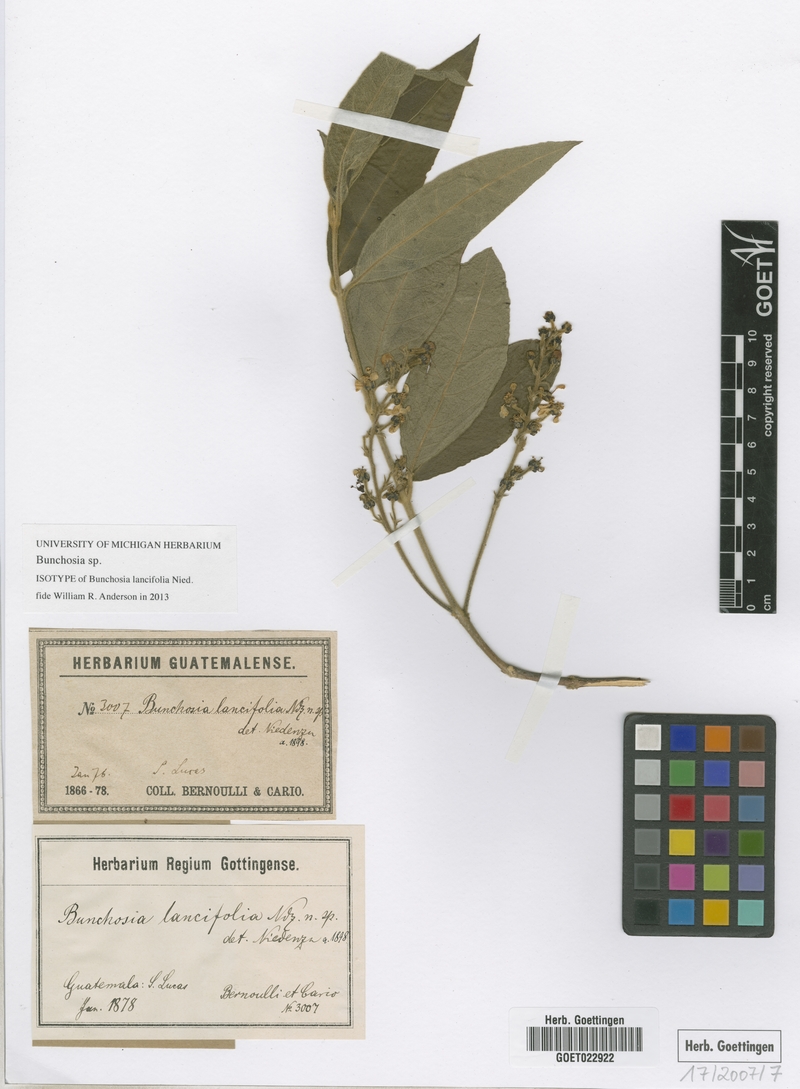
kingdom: Plantae
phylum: Tracheophyta
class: Magnoliopsida
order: Malpighiales
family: Malpighiaceae
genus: Bunchosia
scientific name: Bunchosia
